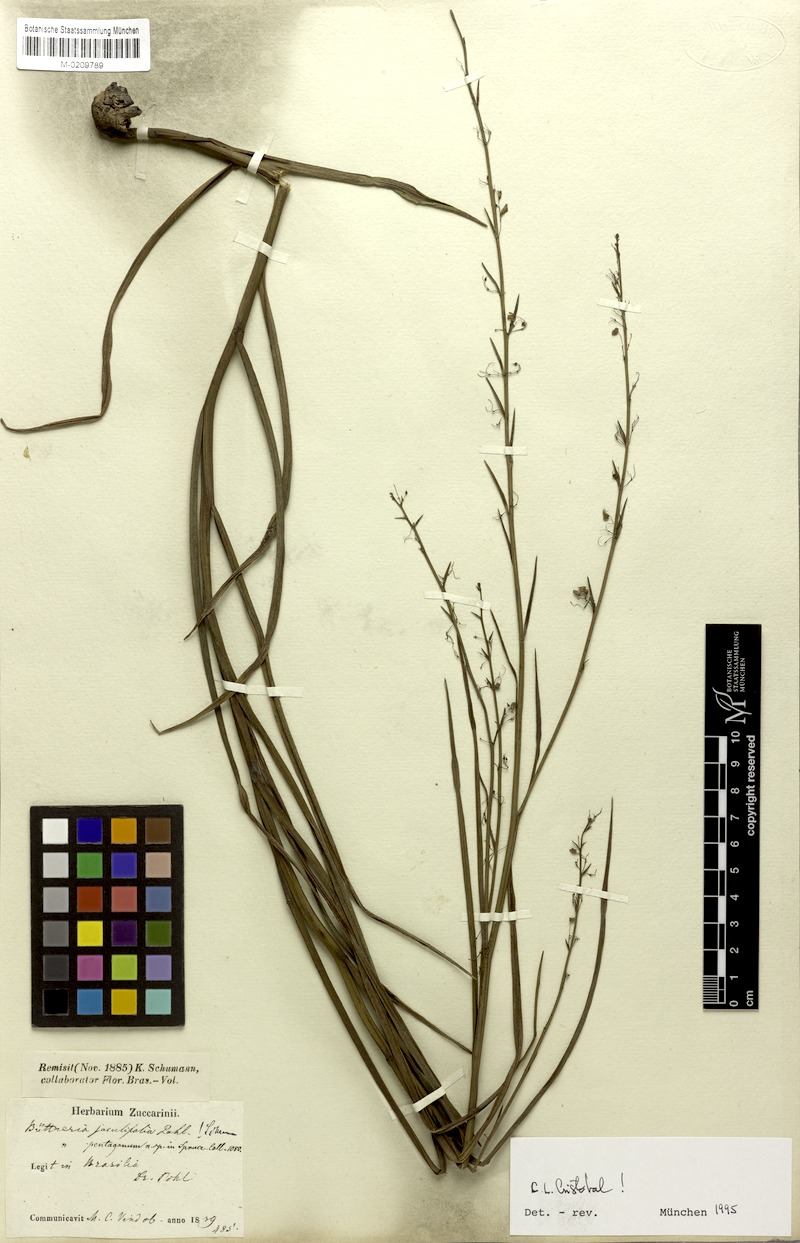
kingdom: Plantae
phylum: Tracheophyta
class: Magnoliopsida
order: Malvales
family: Malvaceae
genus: Byttneria
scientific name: Byttneria jaculifolia
